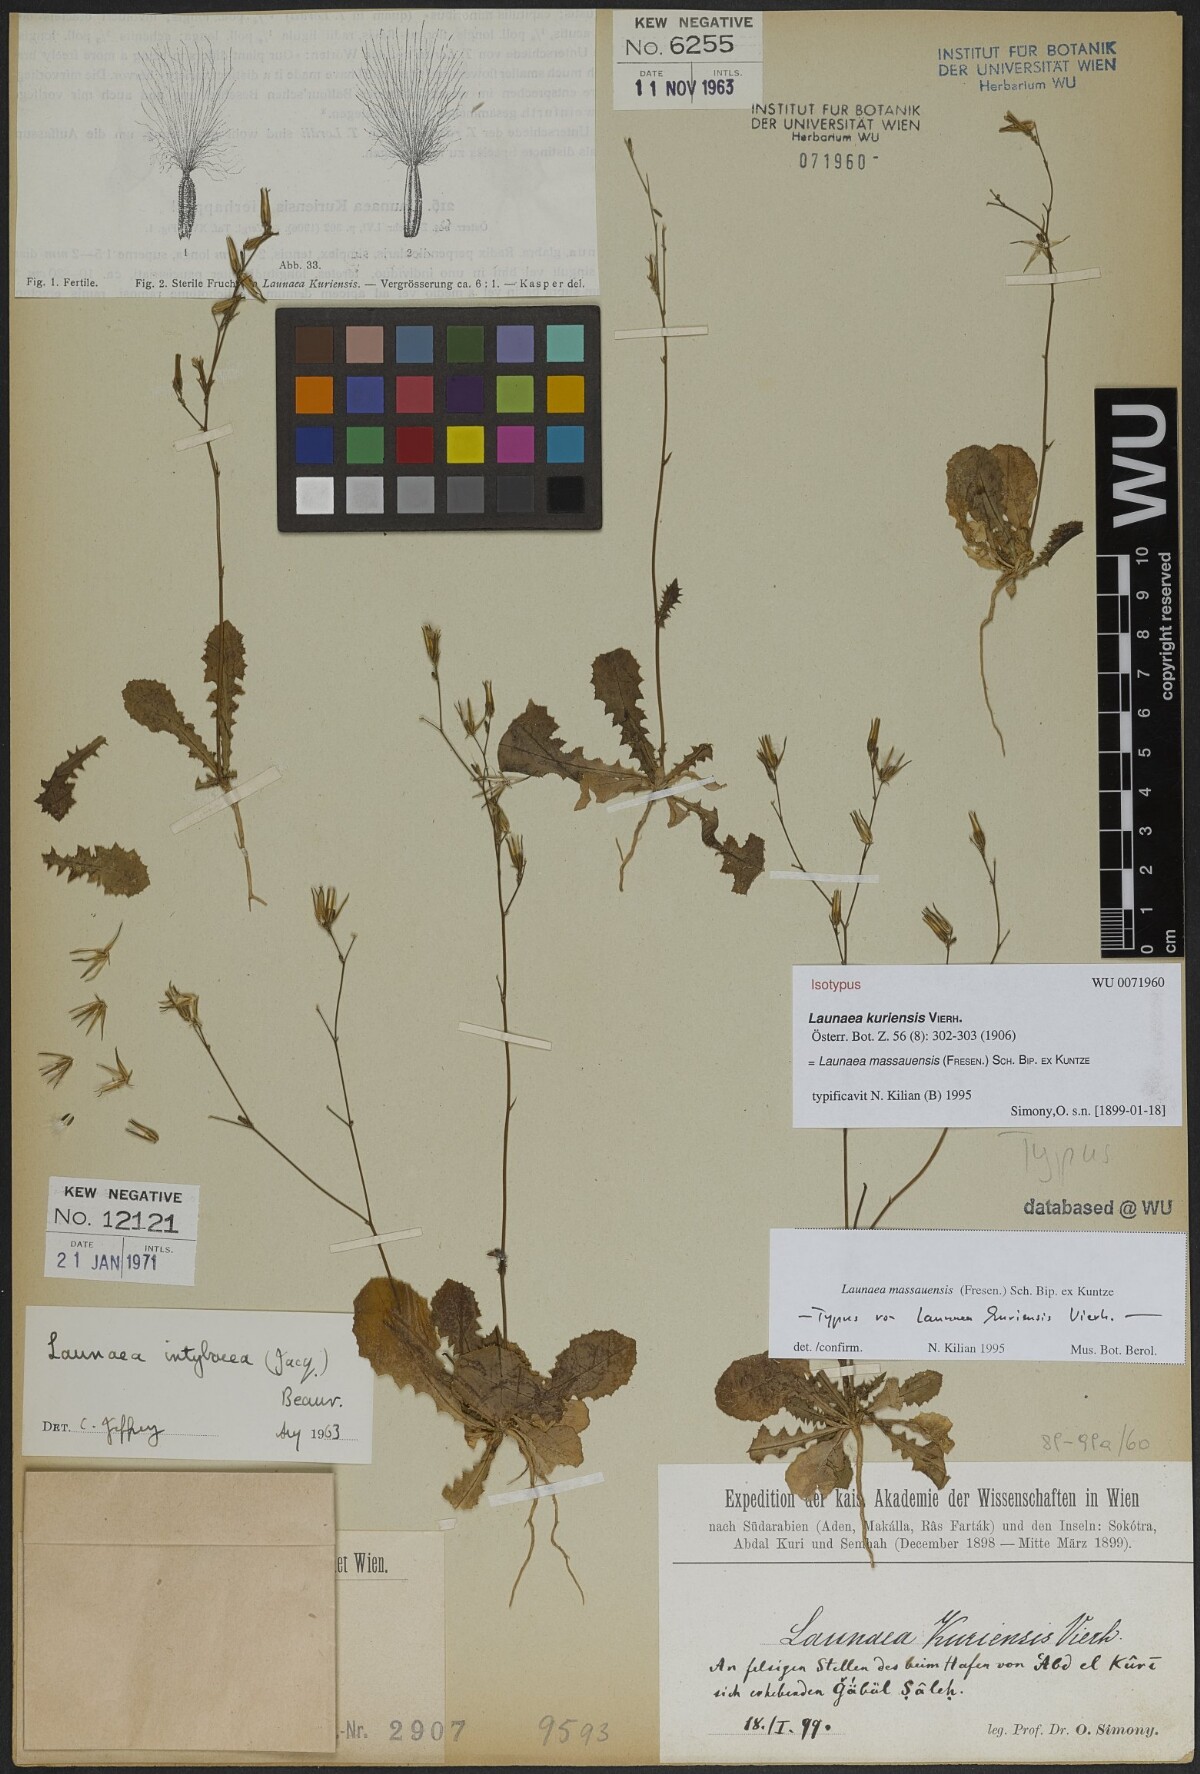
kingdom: Plantae
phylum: Tracheophyta
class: Magnoliopsida
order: Asterales
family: Asteraceae
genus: Launaea
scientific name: Launaea massauensis
